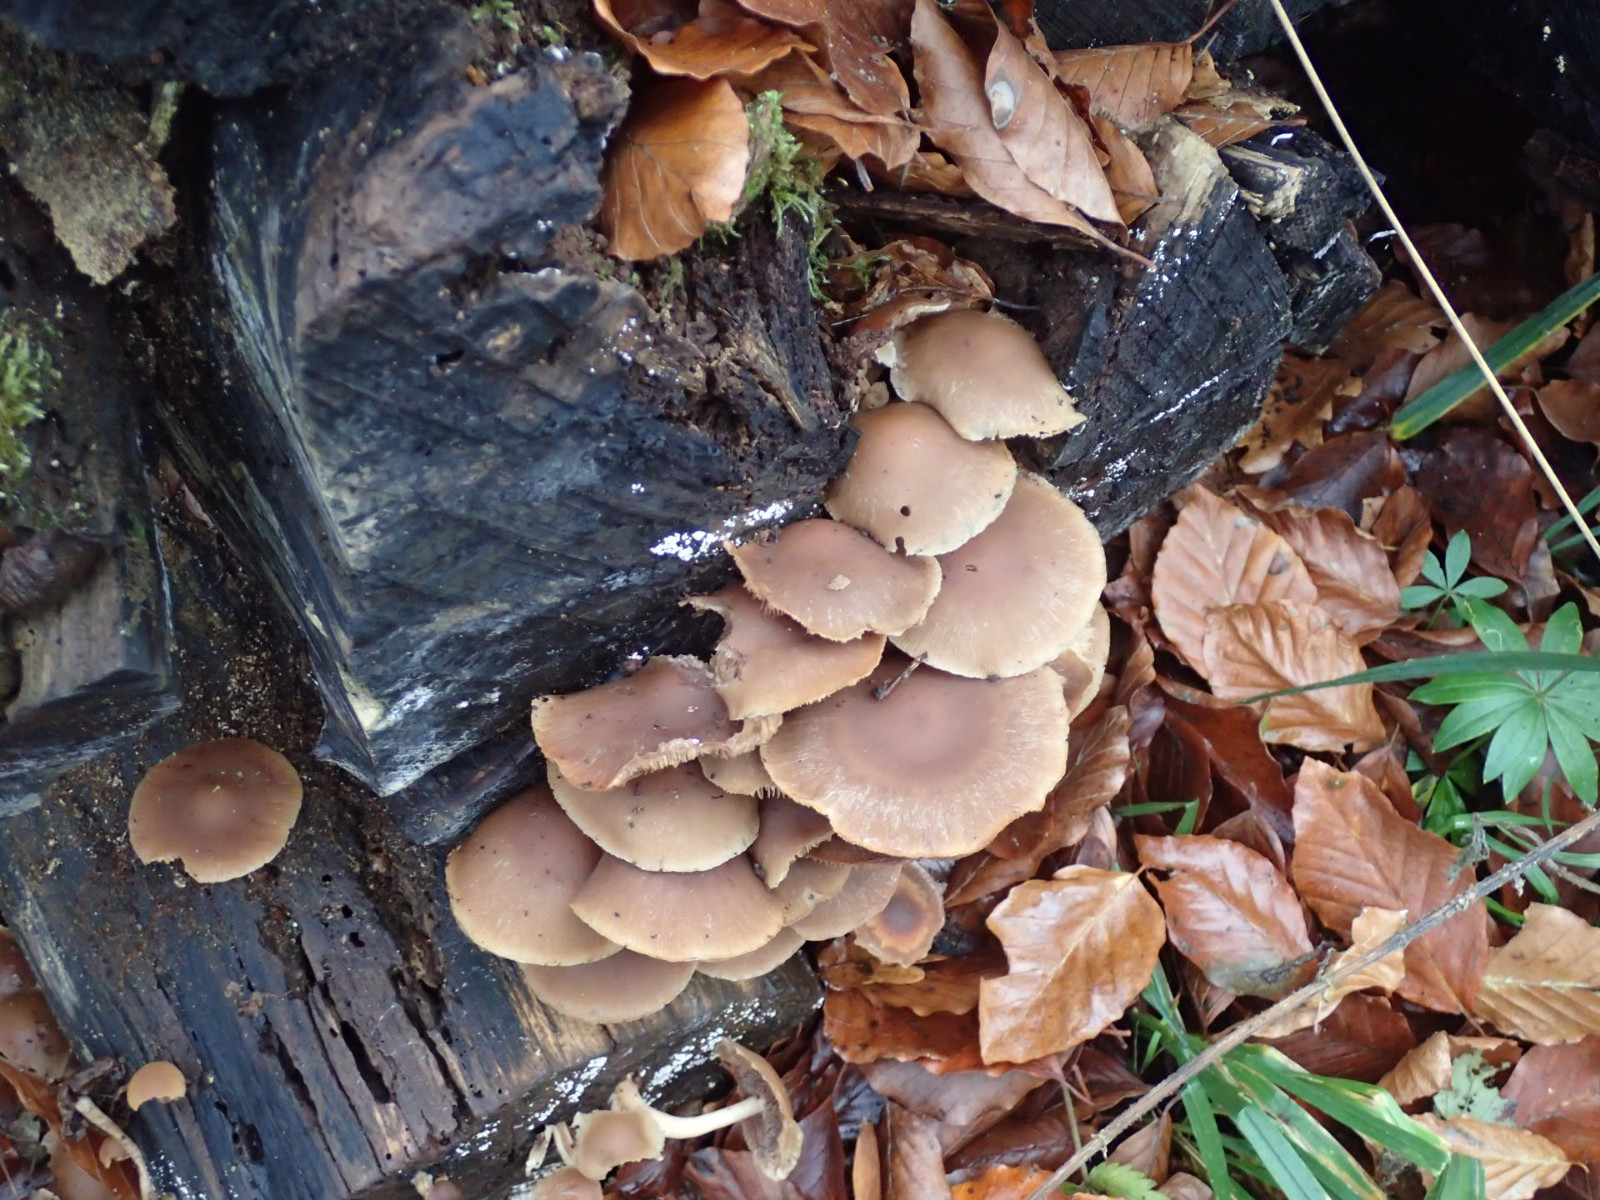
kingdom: Fungi
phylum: Basidiomycota
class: Agaricomycetes
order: Agaricales
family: Psathyrellaceae
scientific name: Psathyrellaceae
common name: mørkhatfamilien
